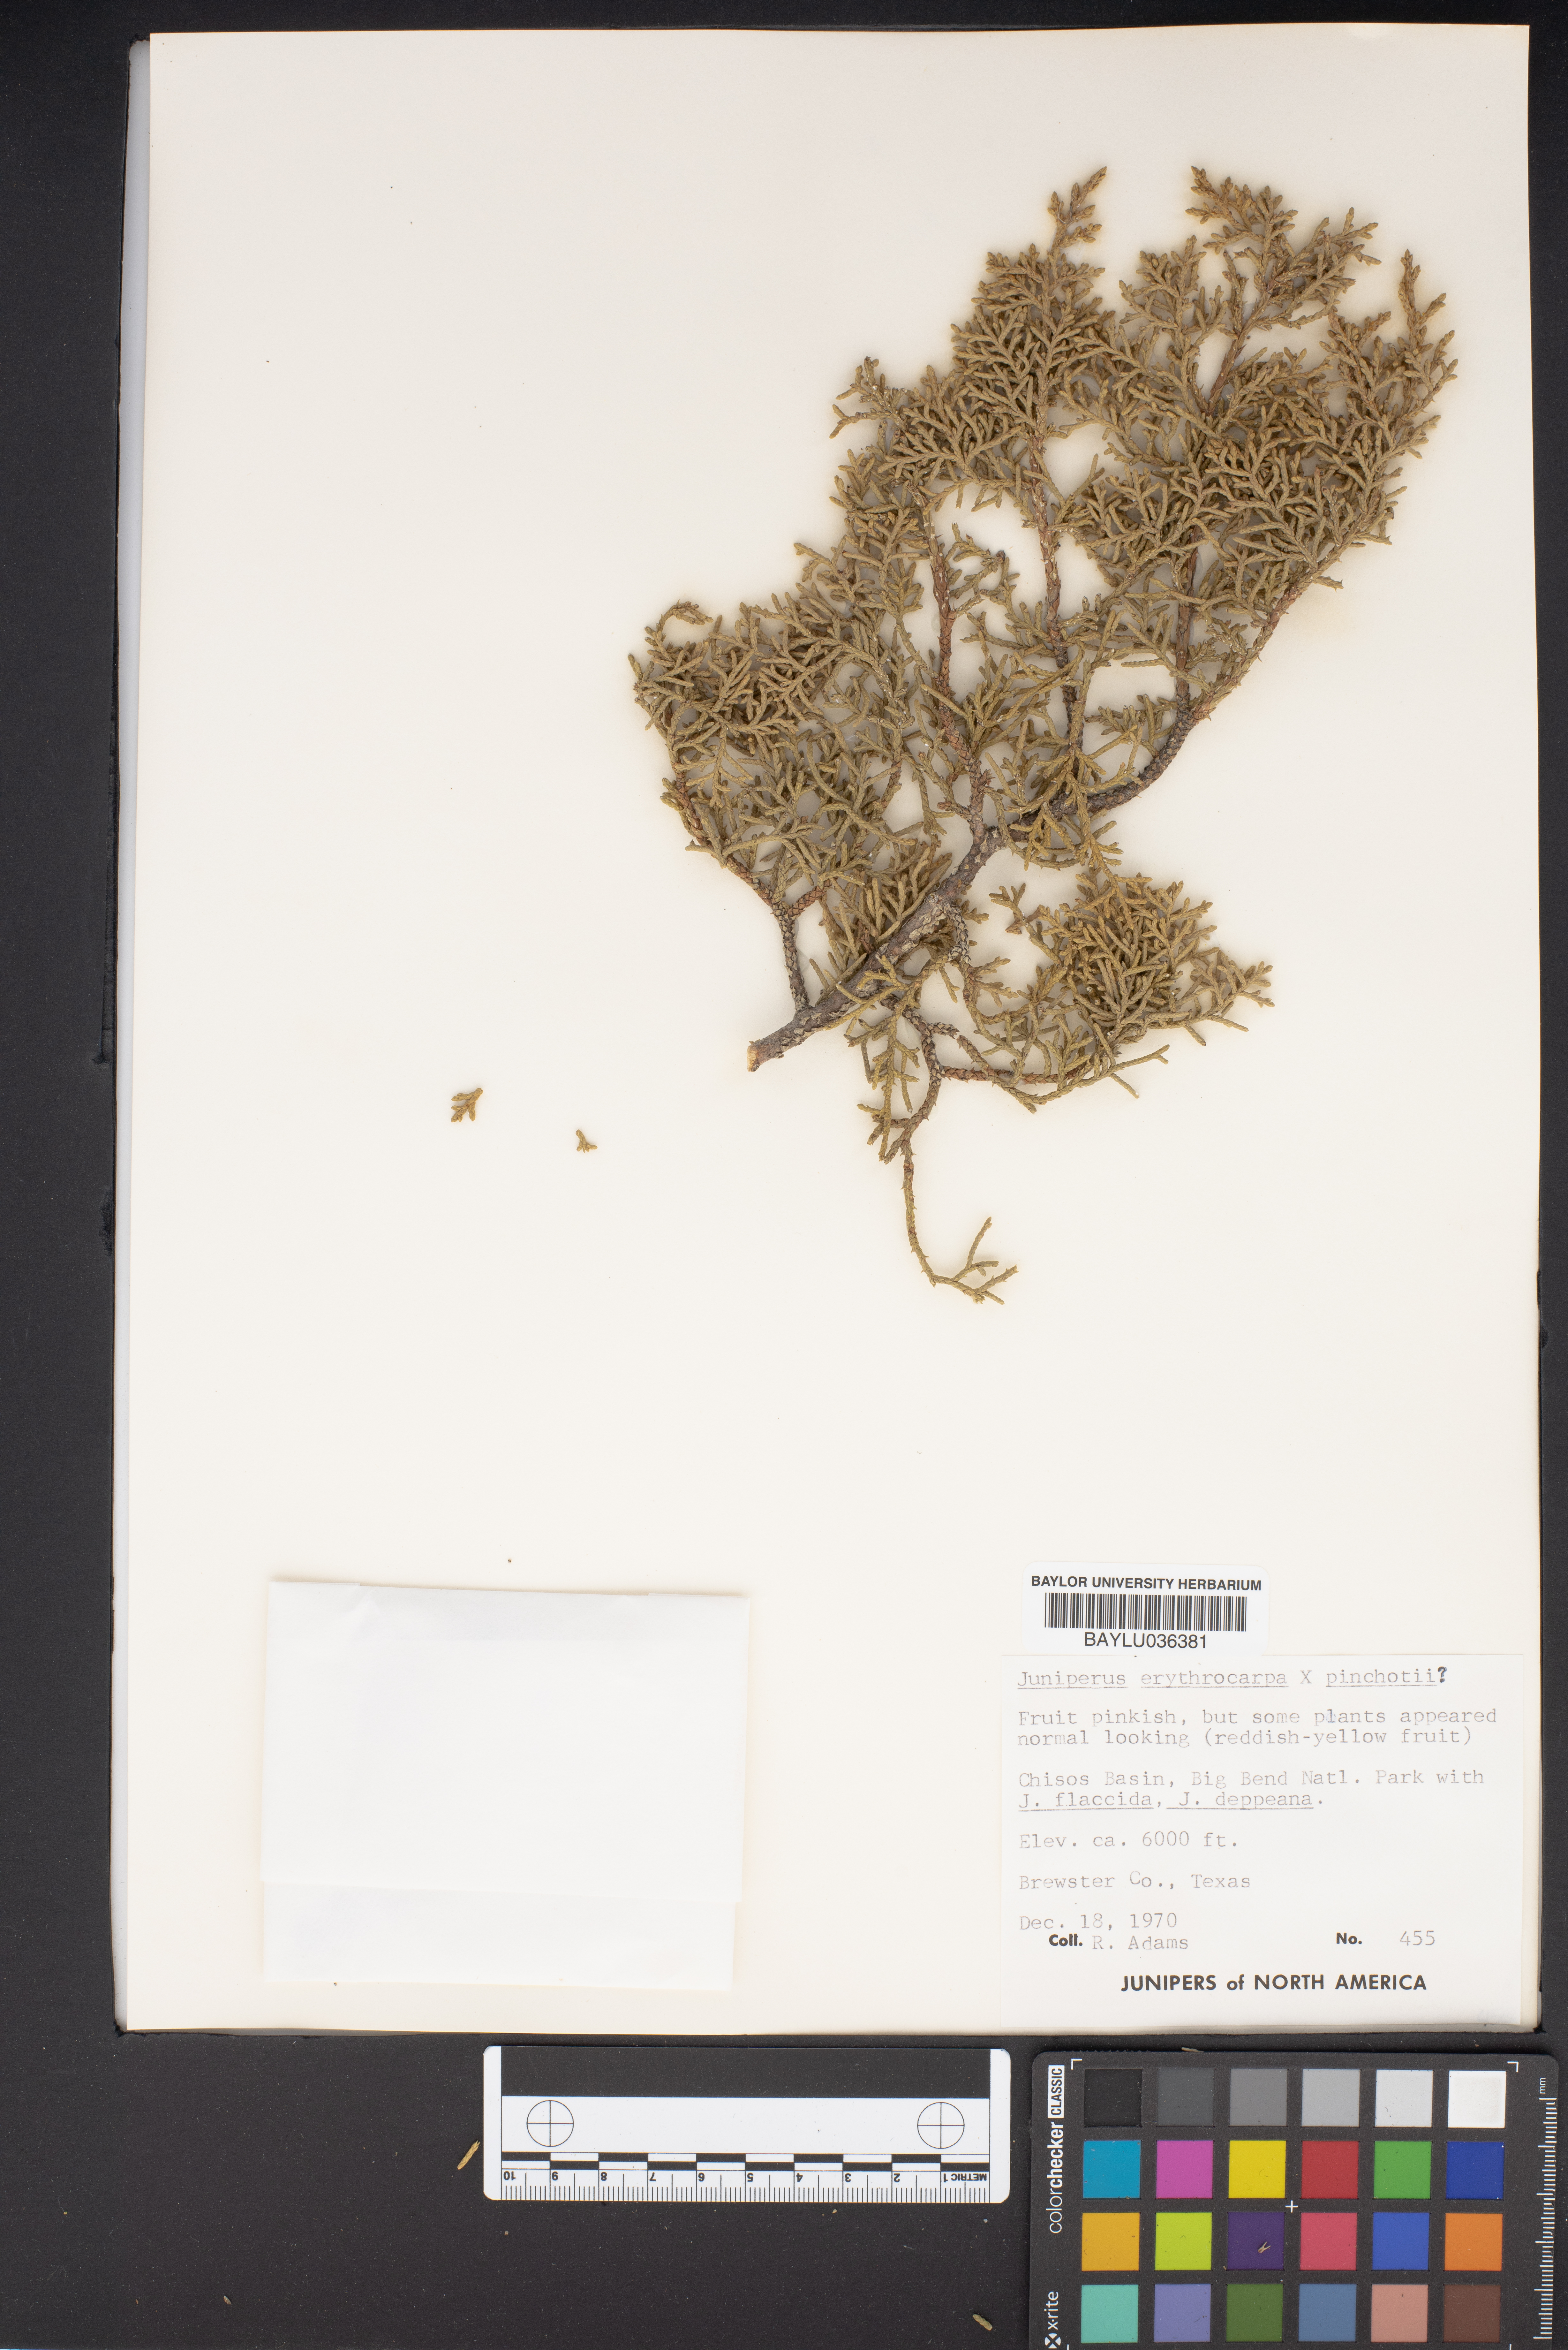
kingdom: Plantae
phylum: Tracheophyta
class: Pinopsida
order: Pinales
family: Cupressaceae
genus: Juniperus
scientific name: Juniperus pinchotii
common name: Pinchot juniper
